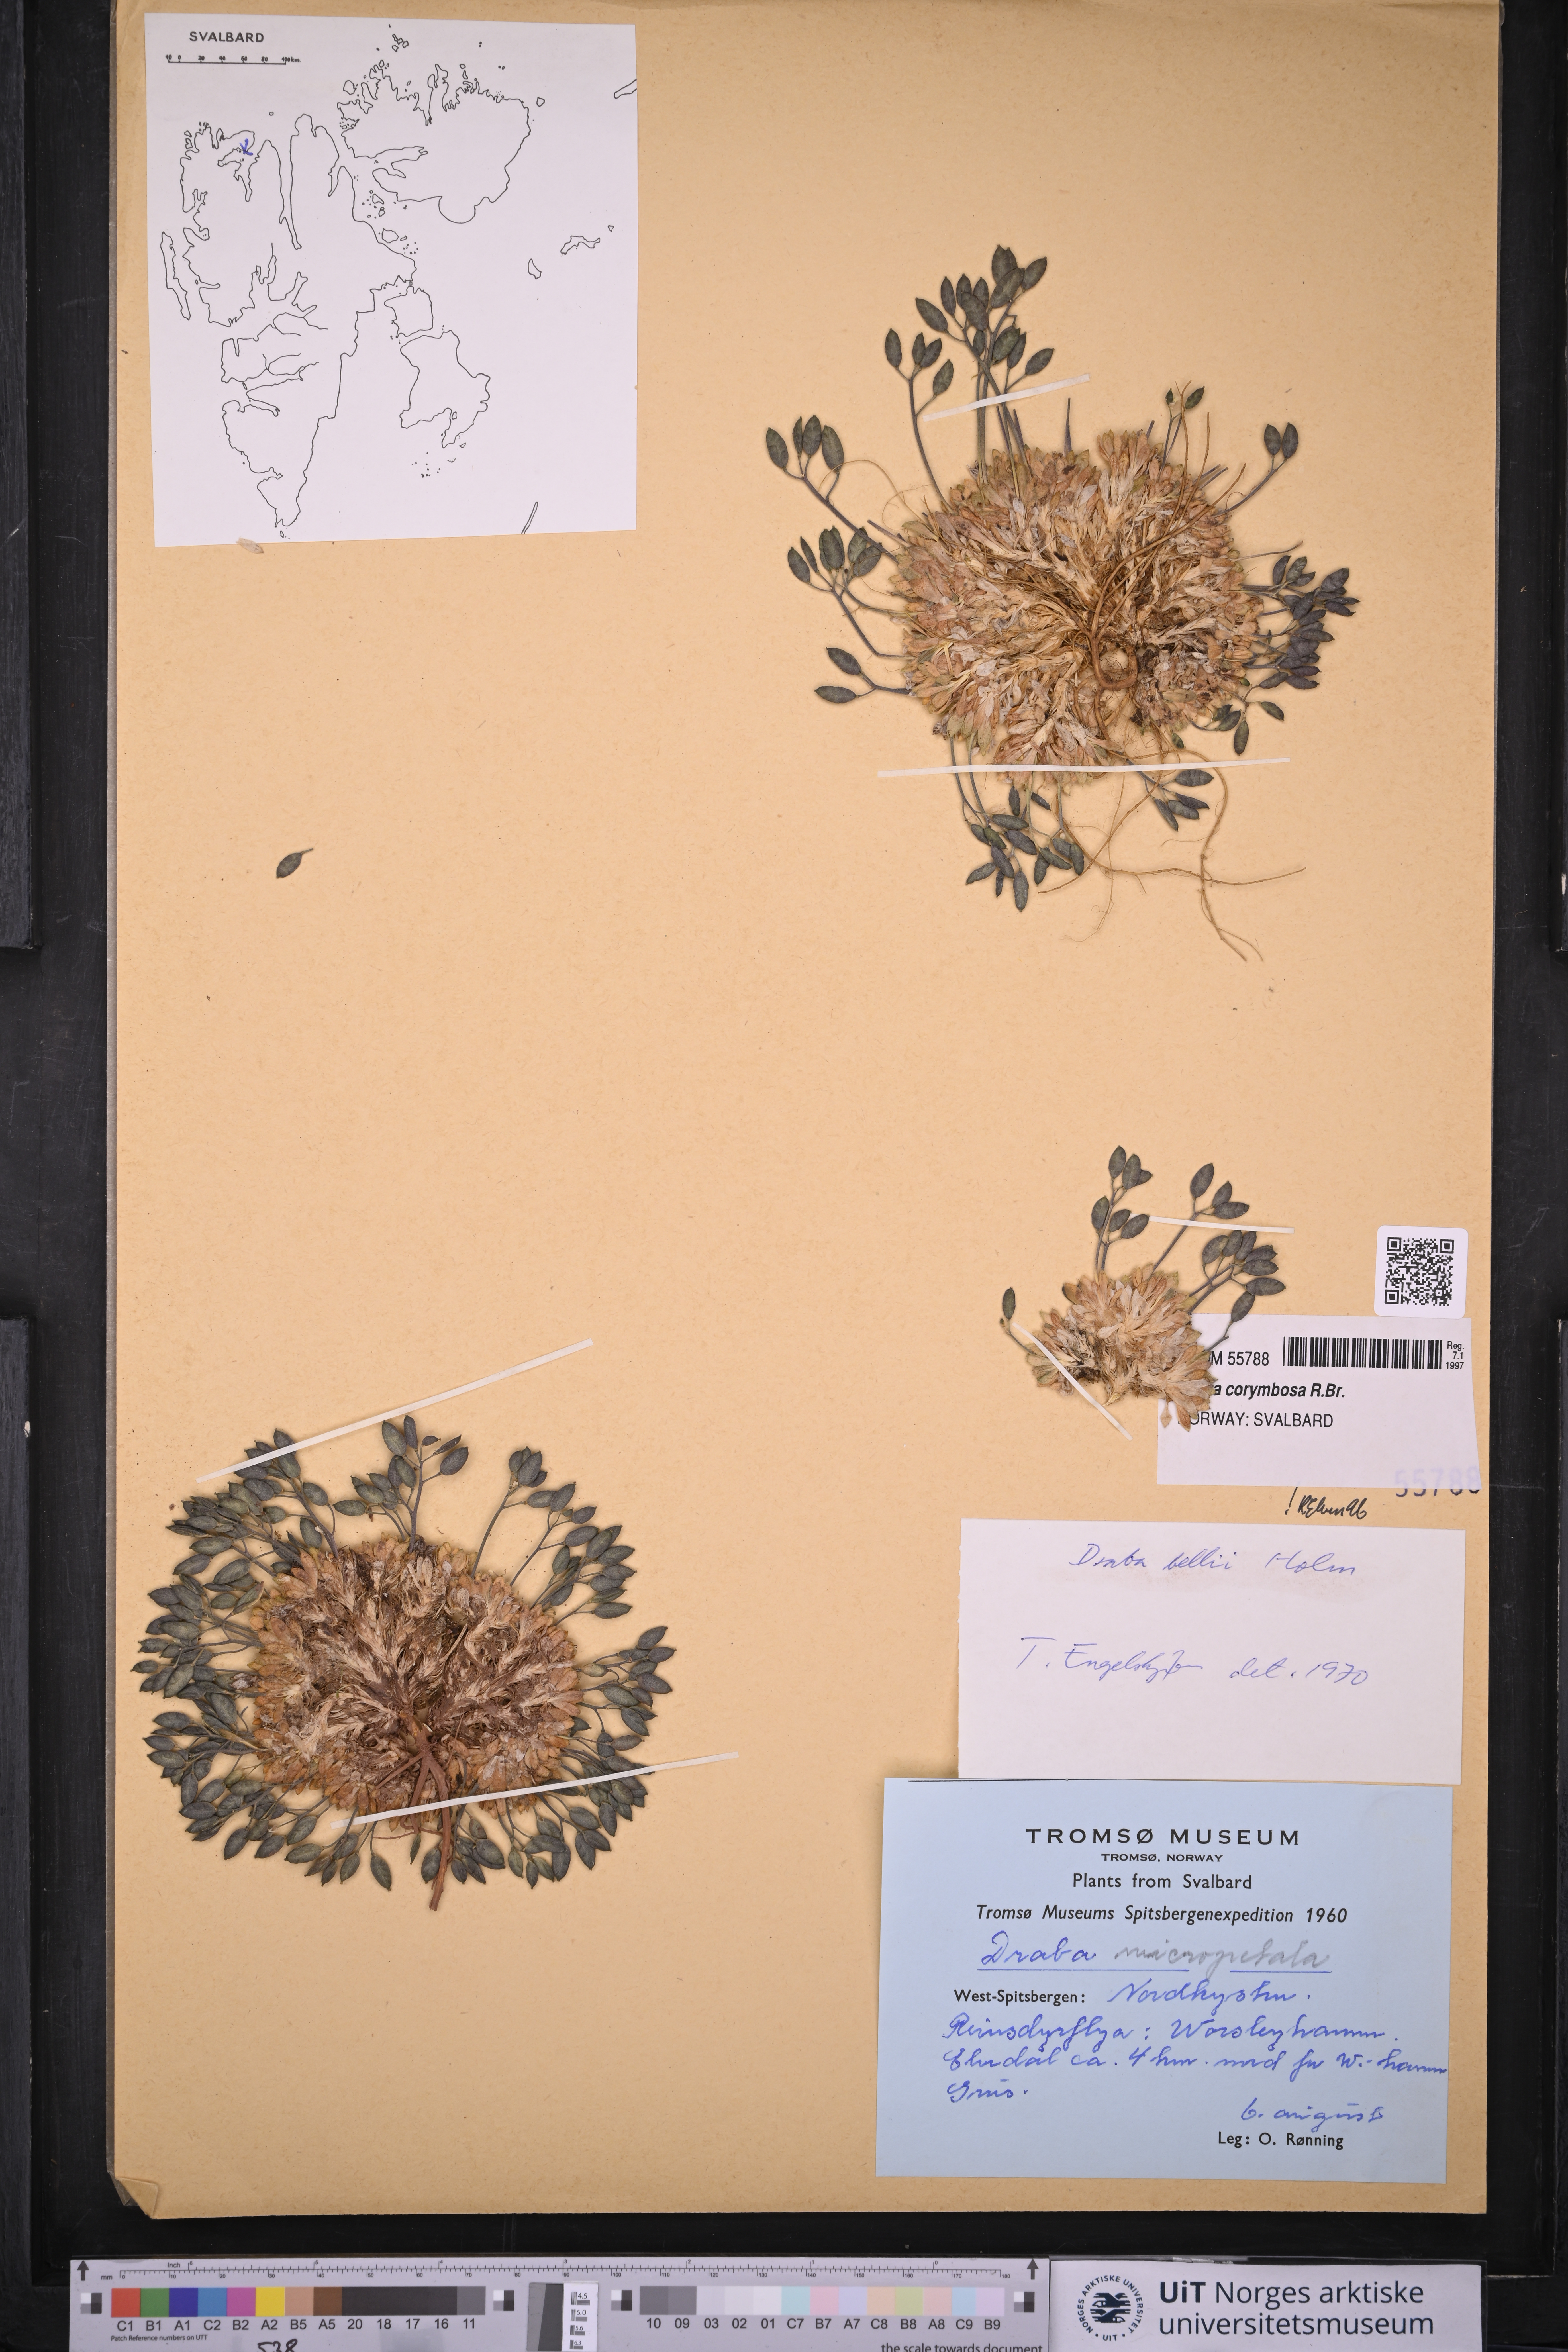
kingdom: Plantae
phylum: Tracheophyta
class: Magnoliopsida
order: Brassicales
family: Brassicaceae
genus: Draba
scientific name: Draba corymbosa
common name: Cushion whitlow-grass
